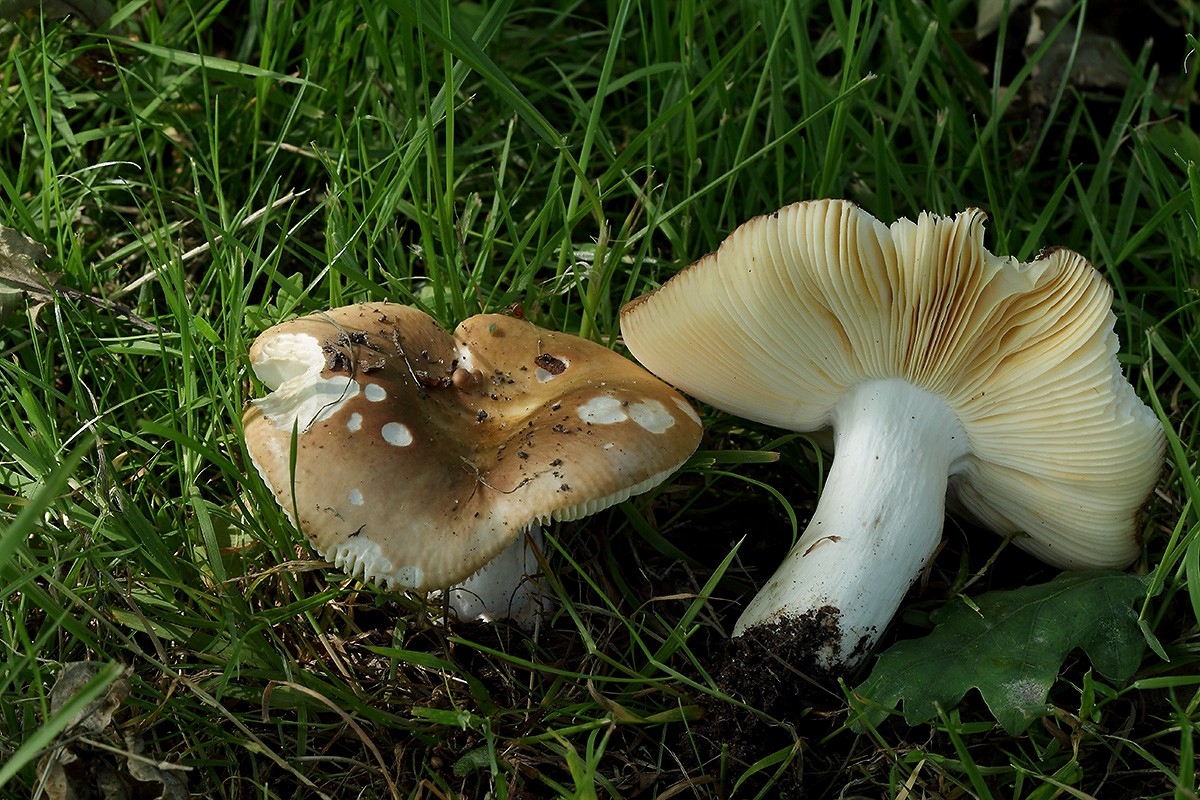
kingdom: Fungi
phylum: Basidiomycota
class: Agaricomycetes
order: Russulales
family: Russulaceae
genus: Russula
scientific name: Russula cuprea
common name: kanel-skørhat
